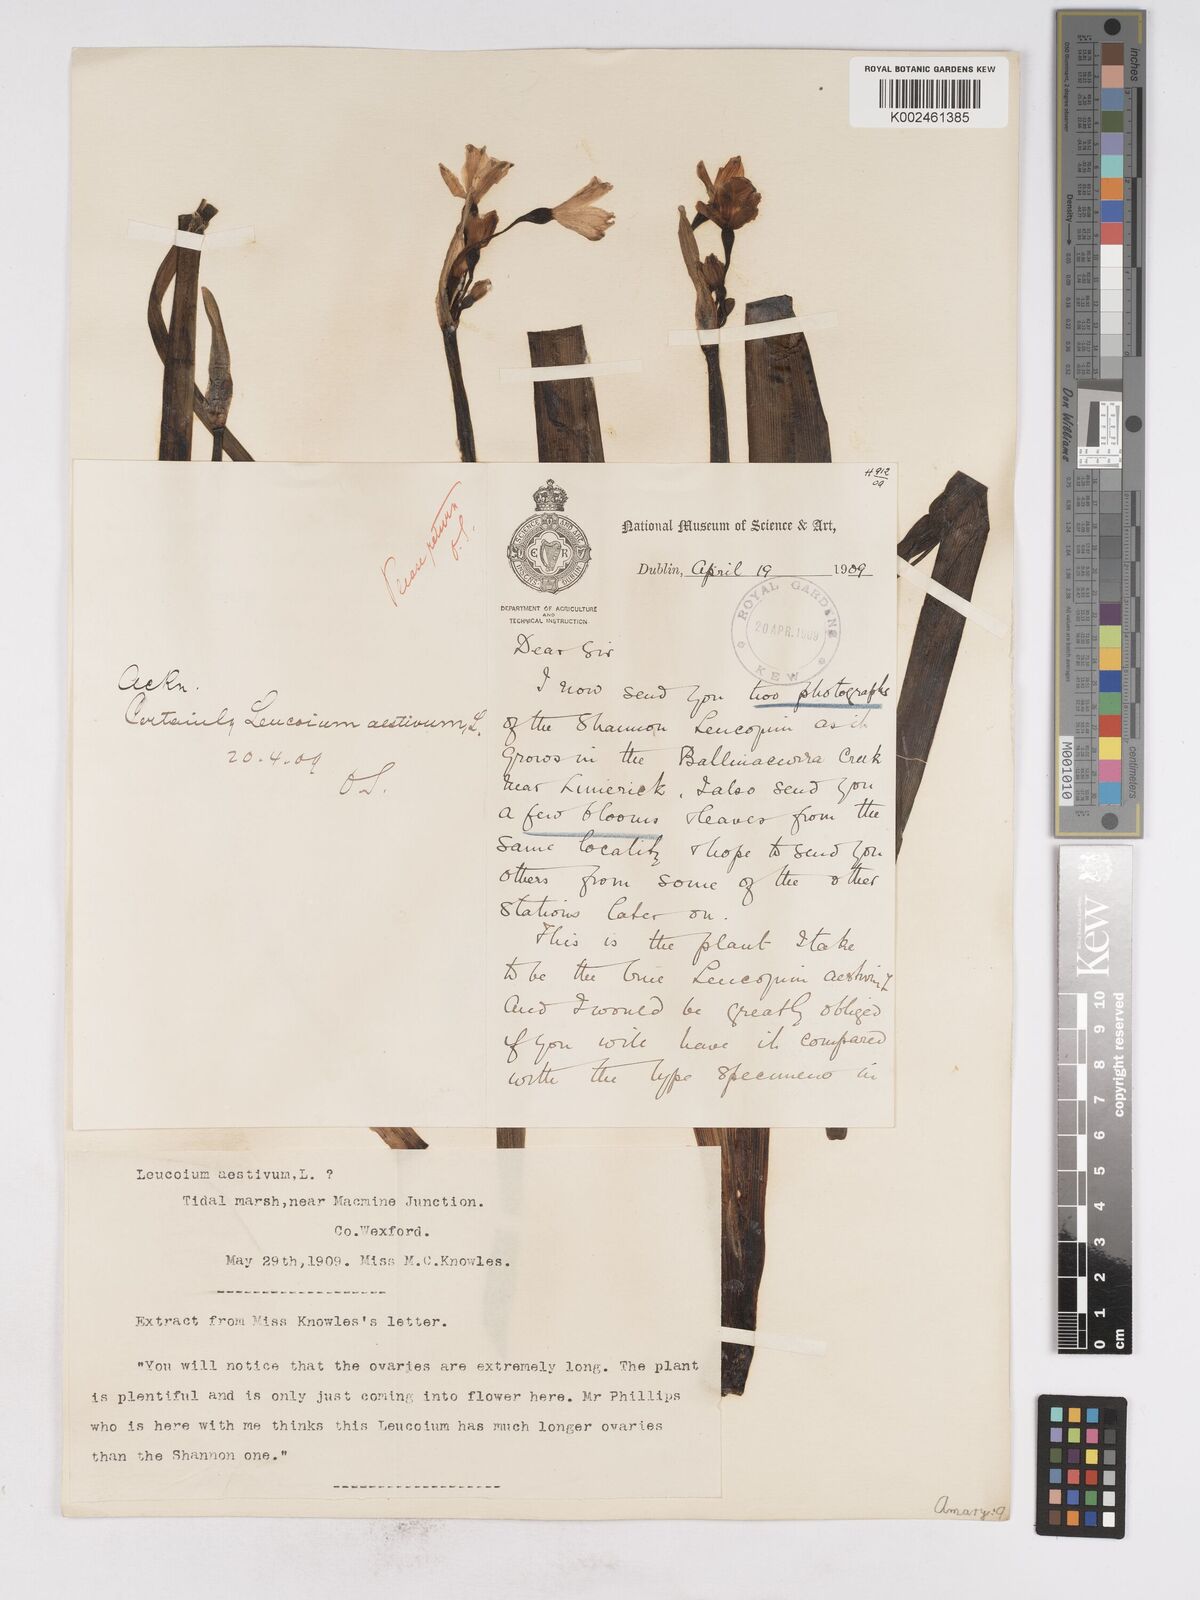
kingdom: Plantae
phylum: Tracheophyta
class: Liliopsida
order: Asparagales
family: Amaryllidaceae
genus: Leucojum
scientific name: Leucojum aestivum
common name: Summer snowflake
